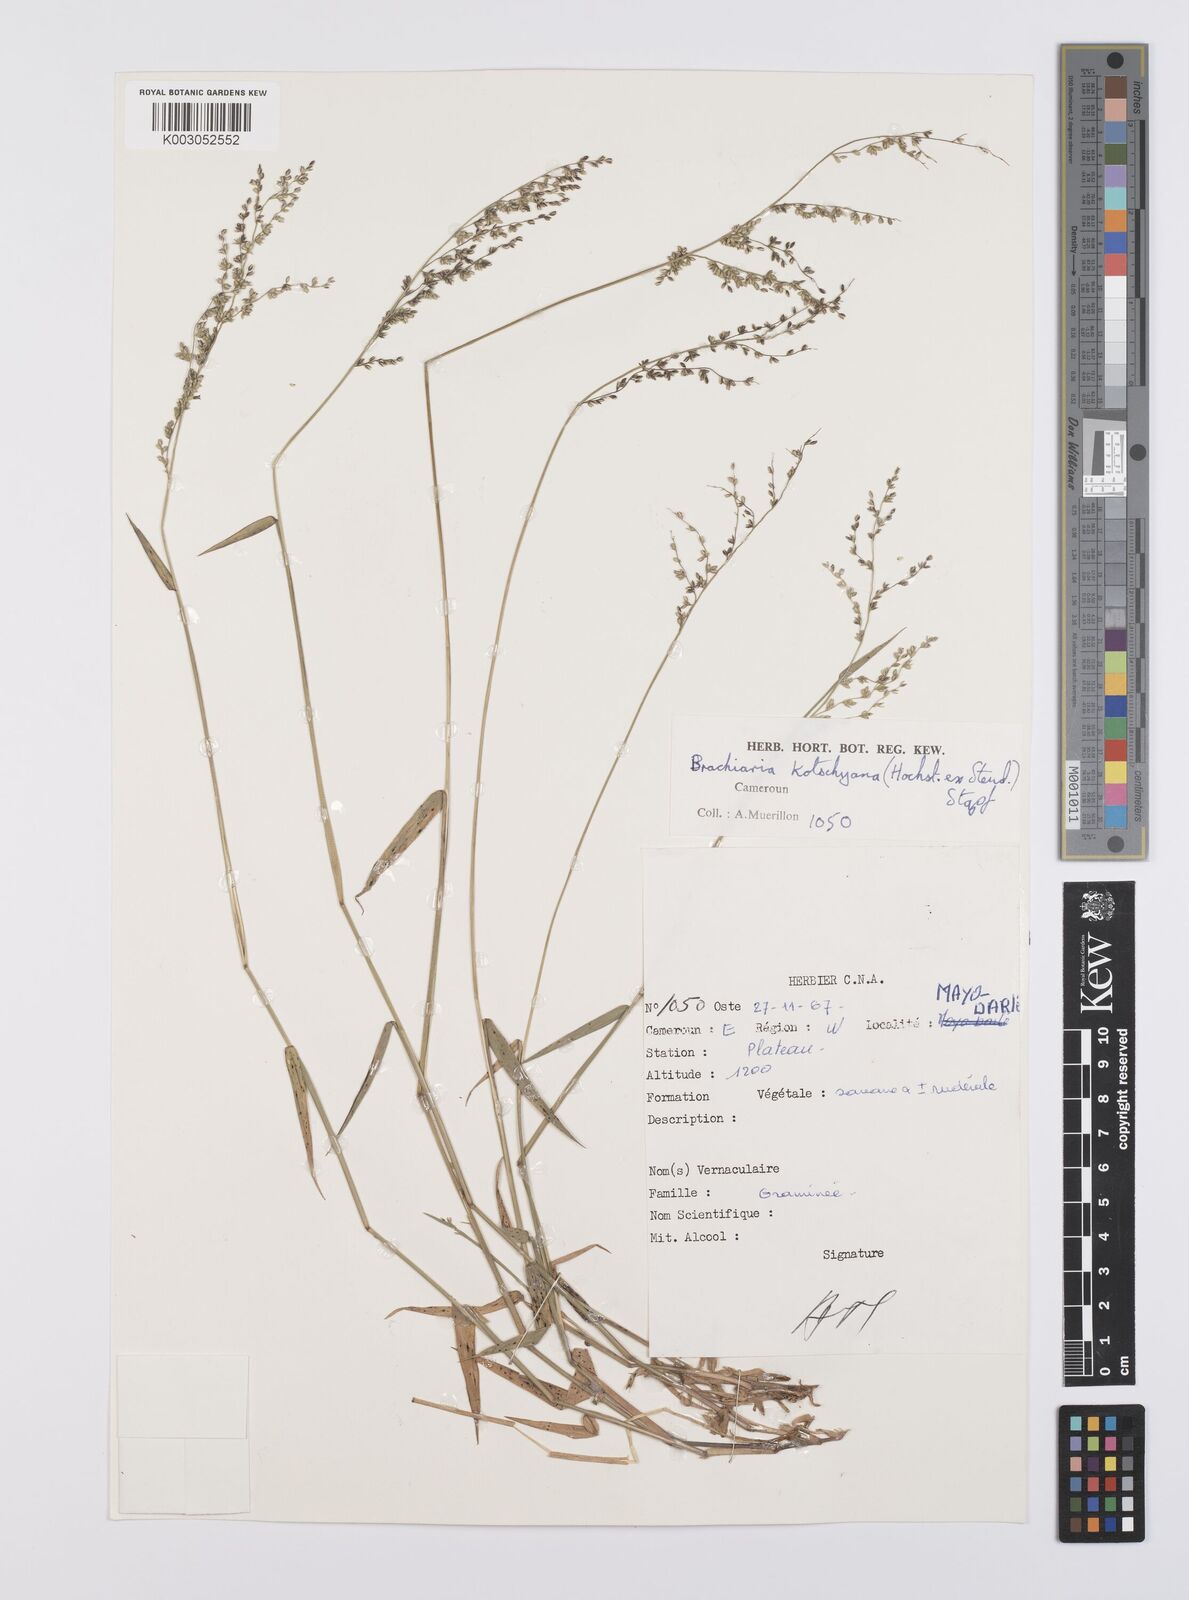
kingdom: Plantae
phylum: Tracheophyta
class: Liliopsida
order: Poales
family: Poaceae
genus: Urochloa
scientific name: Urochloa comata
